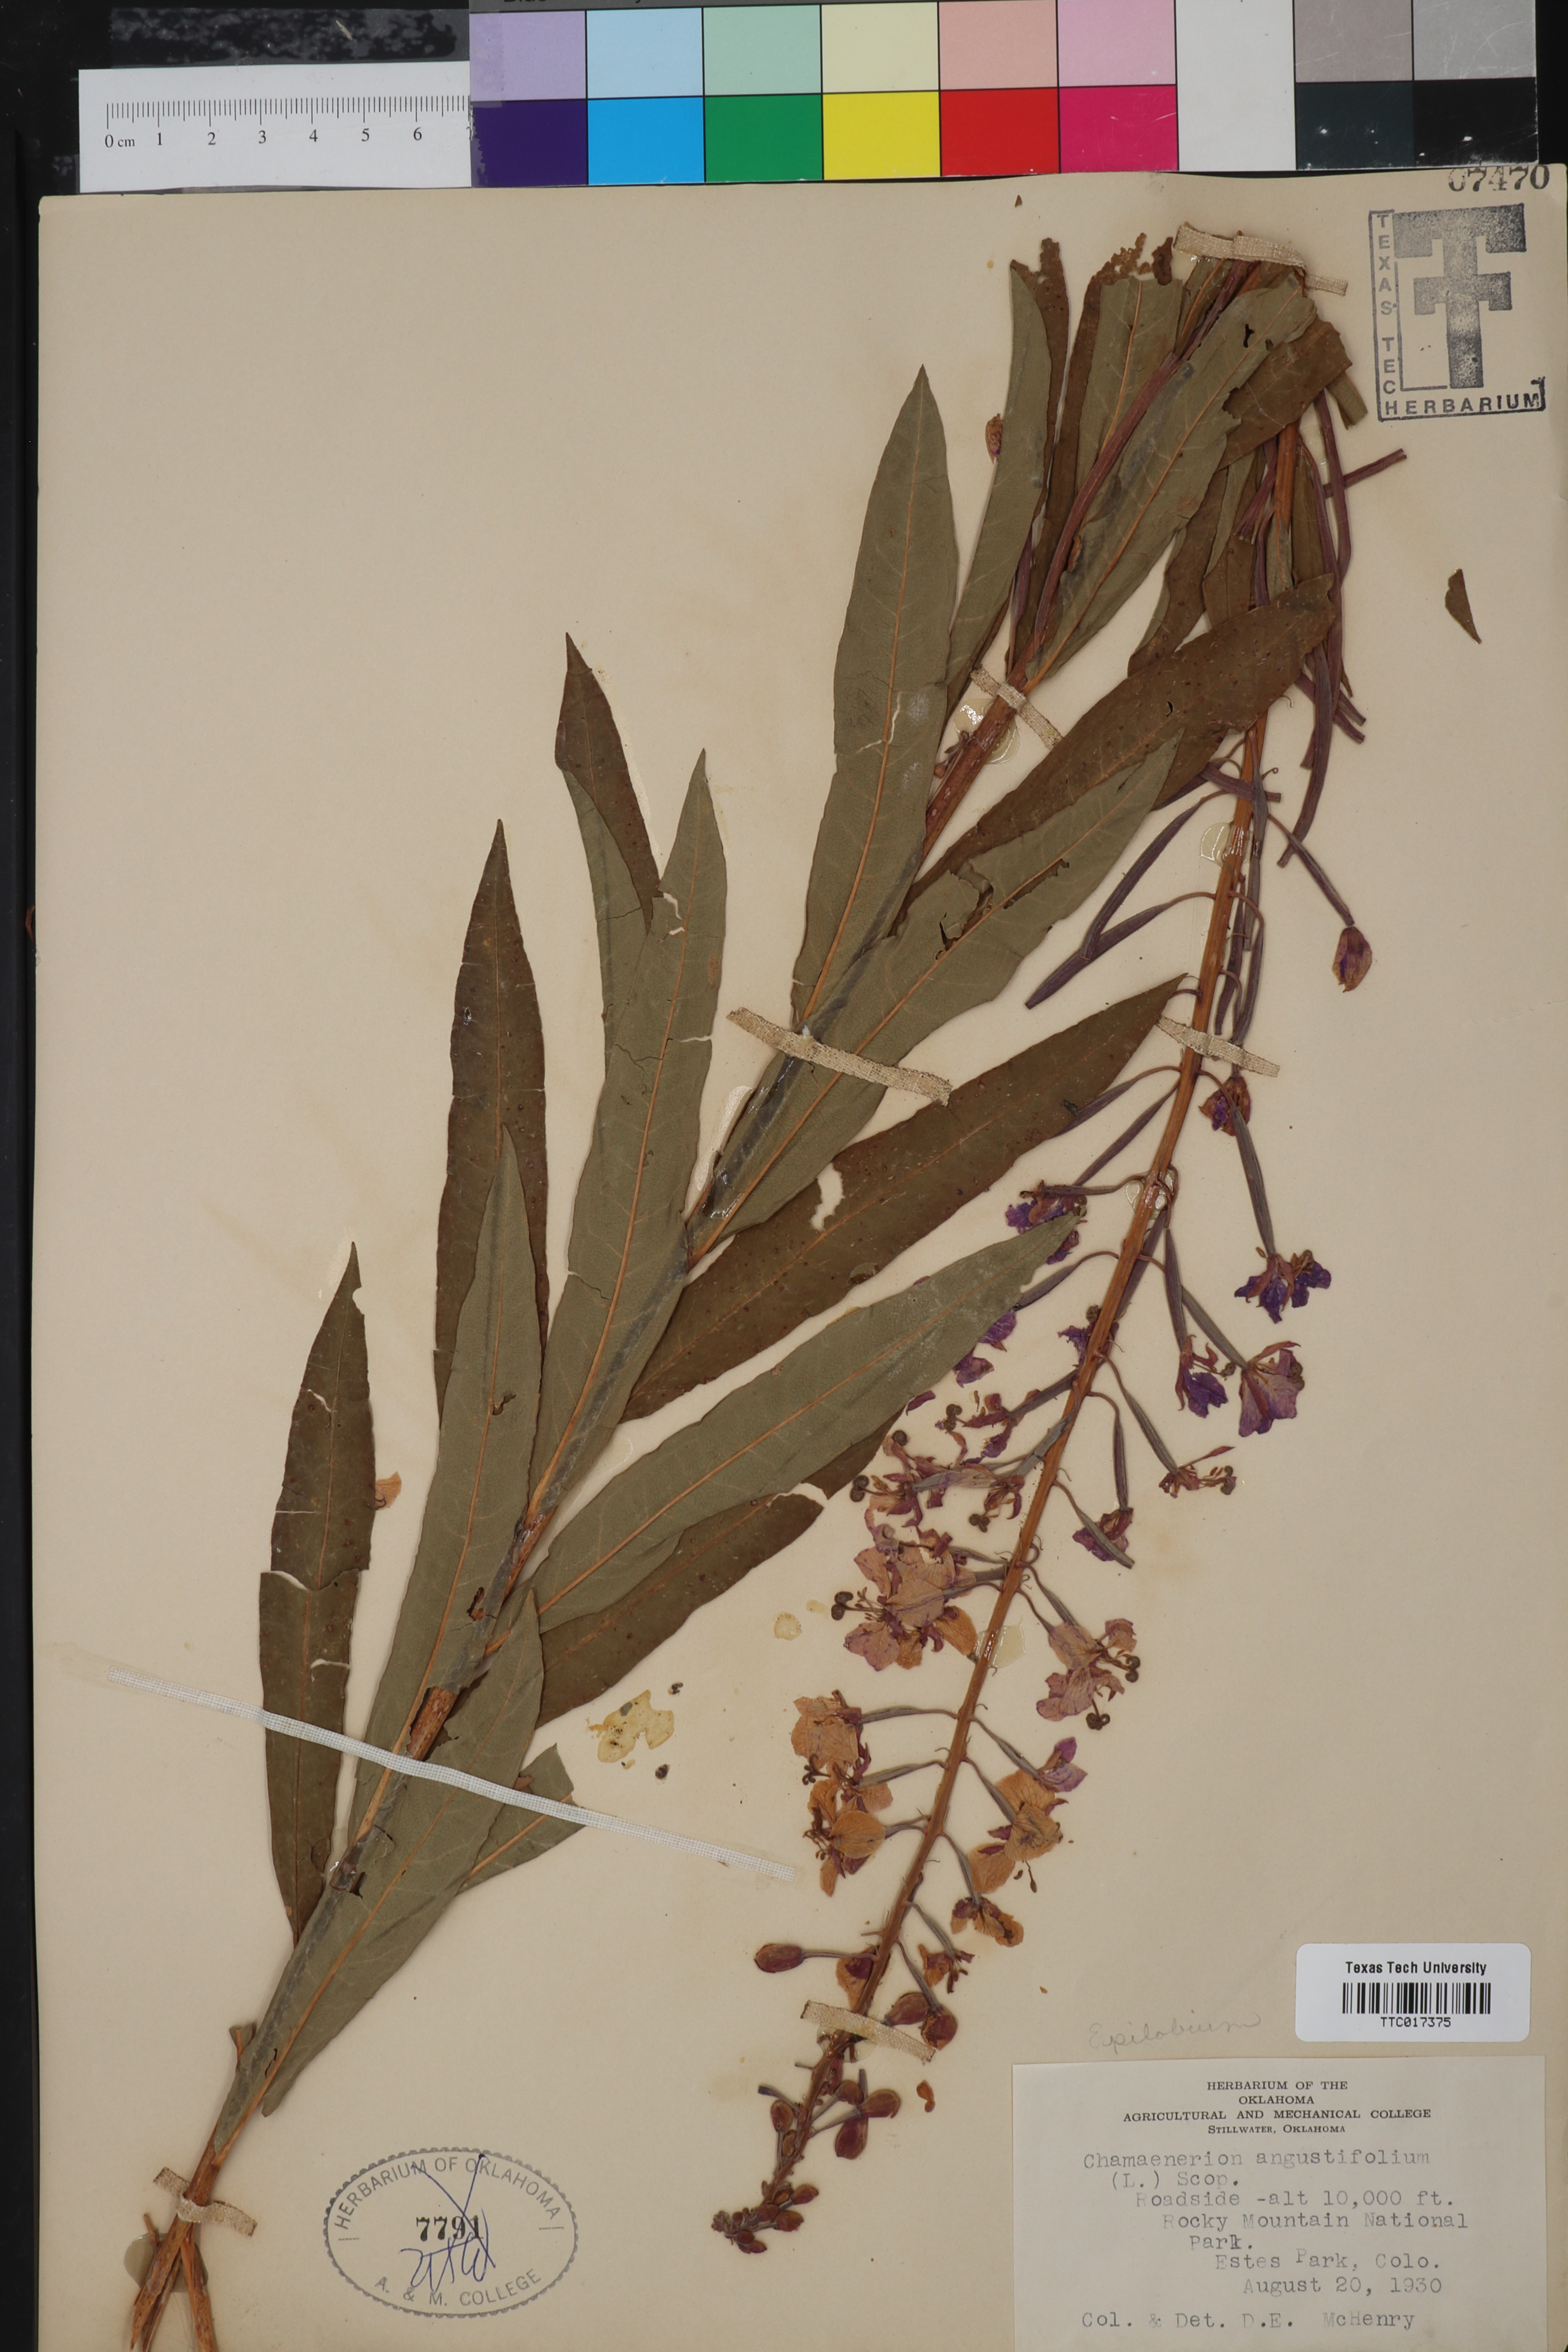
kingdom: Plantae
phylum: Tracheophyta
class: Magnoliopsida
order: Myrtales
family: Onagraceae
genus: Chamaenerion
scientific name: Chamaenerion dodonaei
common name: Rosemary-leaved willowherb
